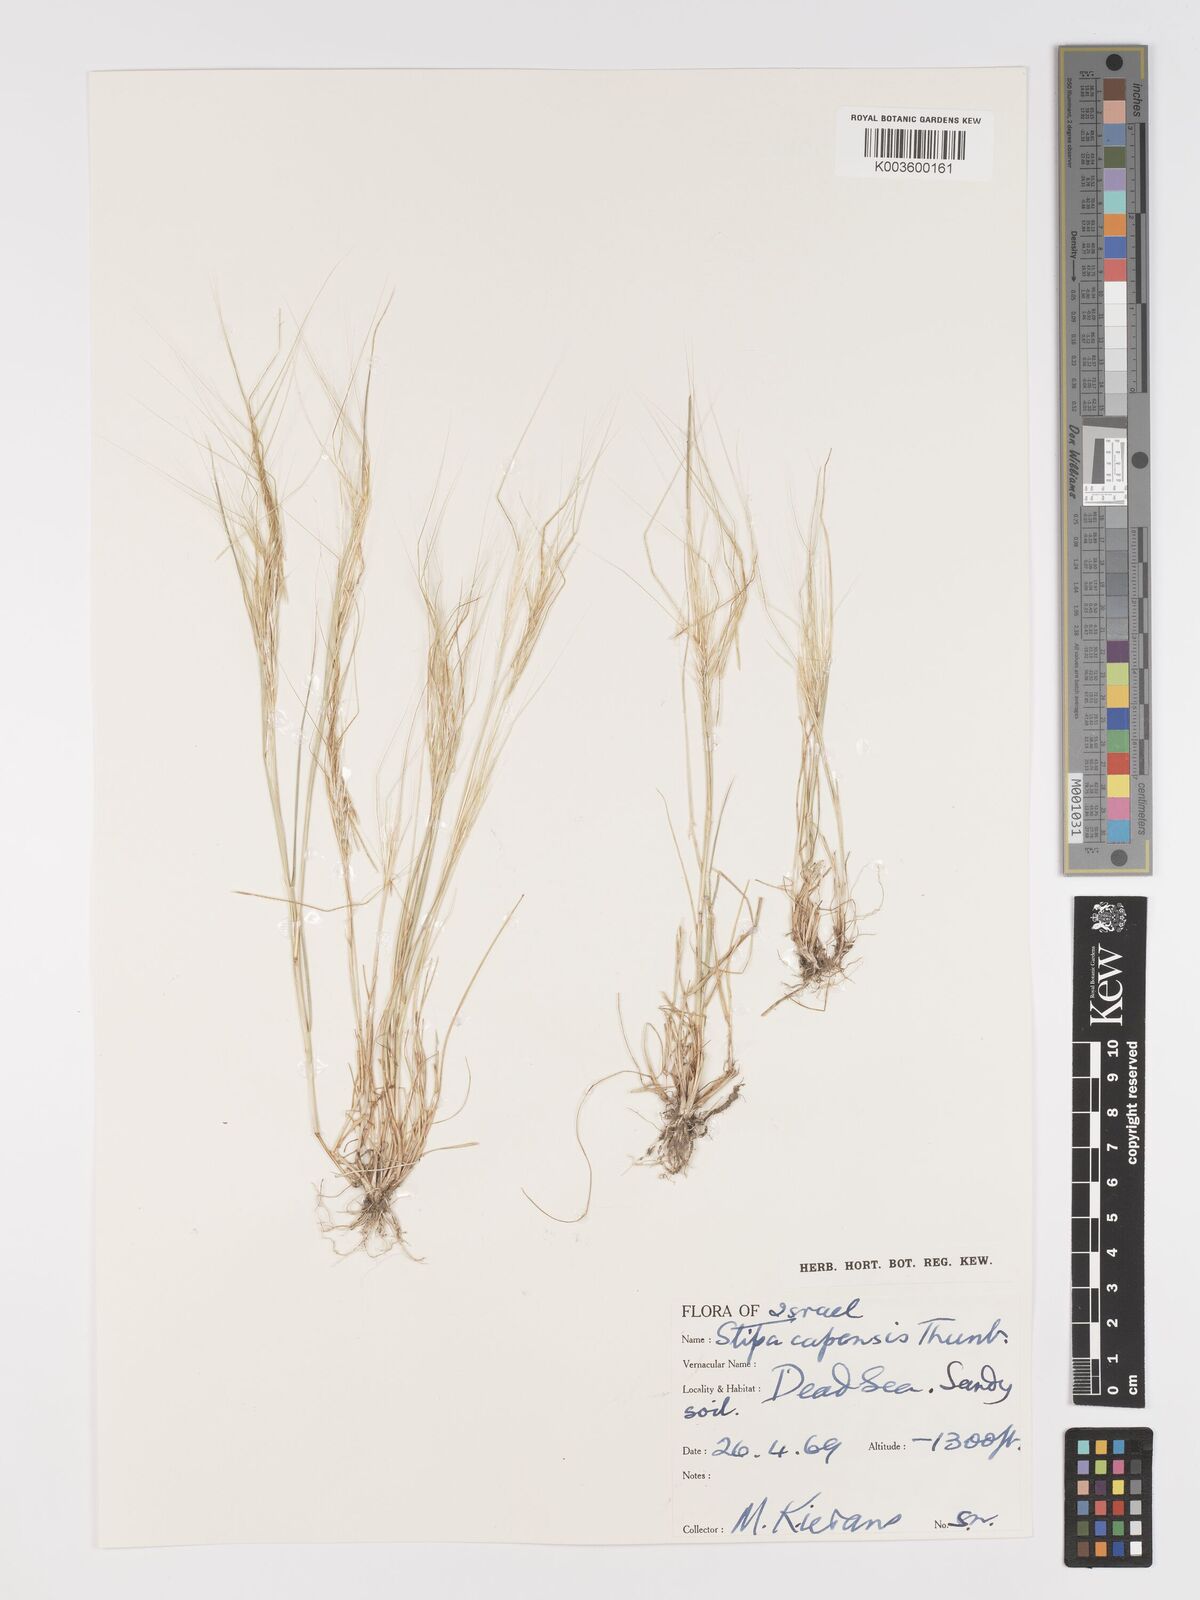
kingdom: Plantae
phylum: Tracheophyta
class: Liliopsida
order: Poales
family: Poaceae
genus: Stipellula
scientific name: Stipellula capensis
